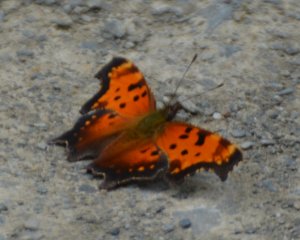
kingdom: Animalia
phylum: Arthropoda
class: Insecta
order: Lepidoptera
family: Nymphalidae
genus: Polygonia
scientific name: Polygonia progne
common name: Gray Comma
